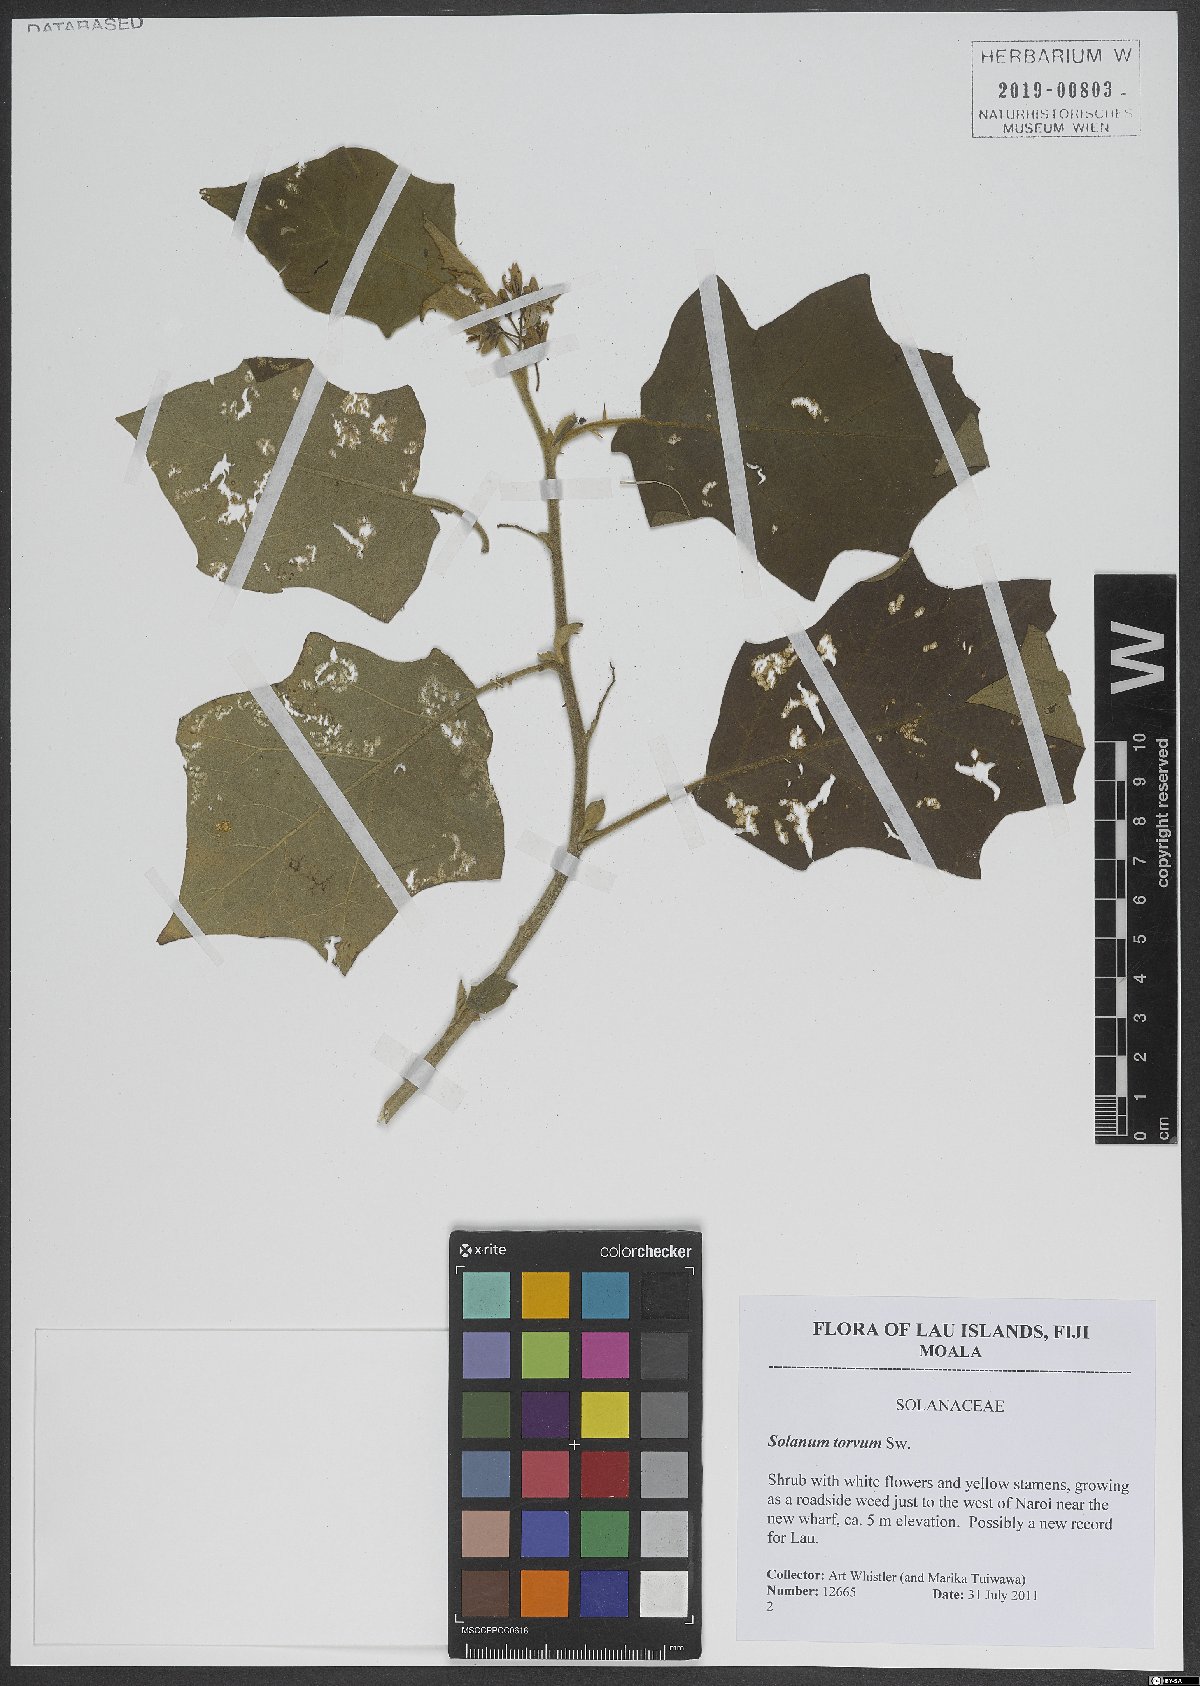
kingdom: Plantae
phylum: Tracheophyta
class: Magnoliopsida
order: Solanales
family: Solanaceae
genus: Solanum
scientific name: Solanum torvum
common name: Turkey berry
